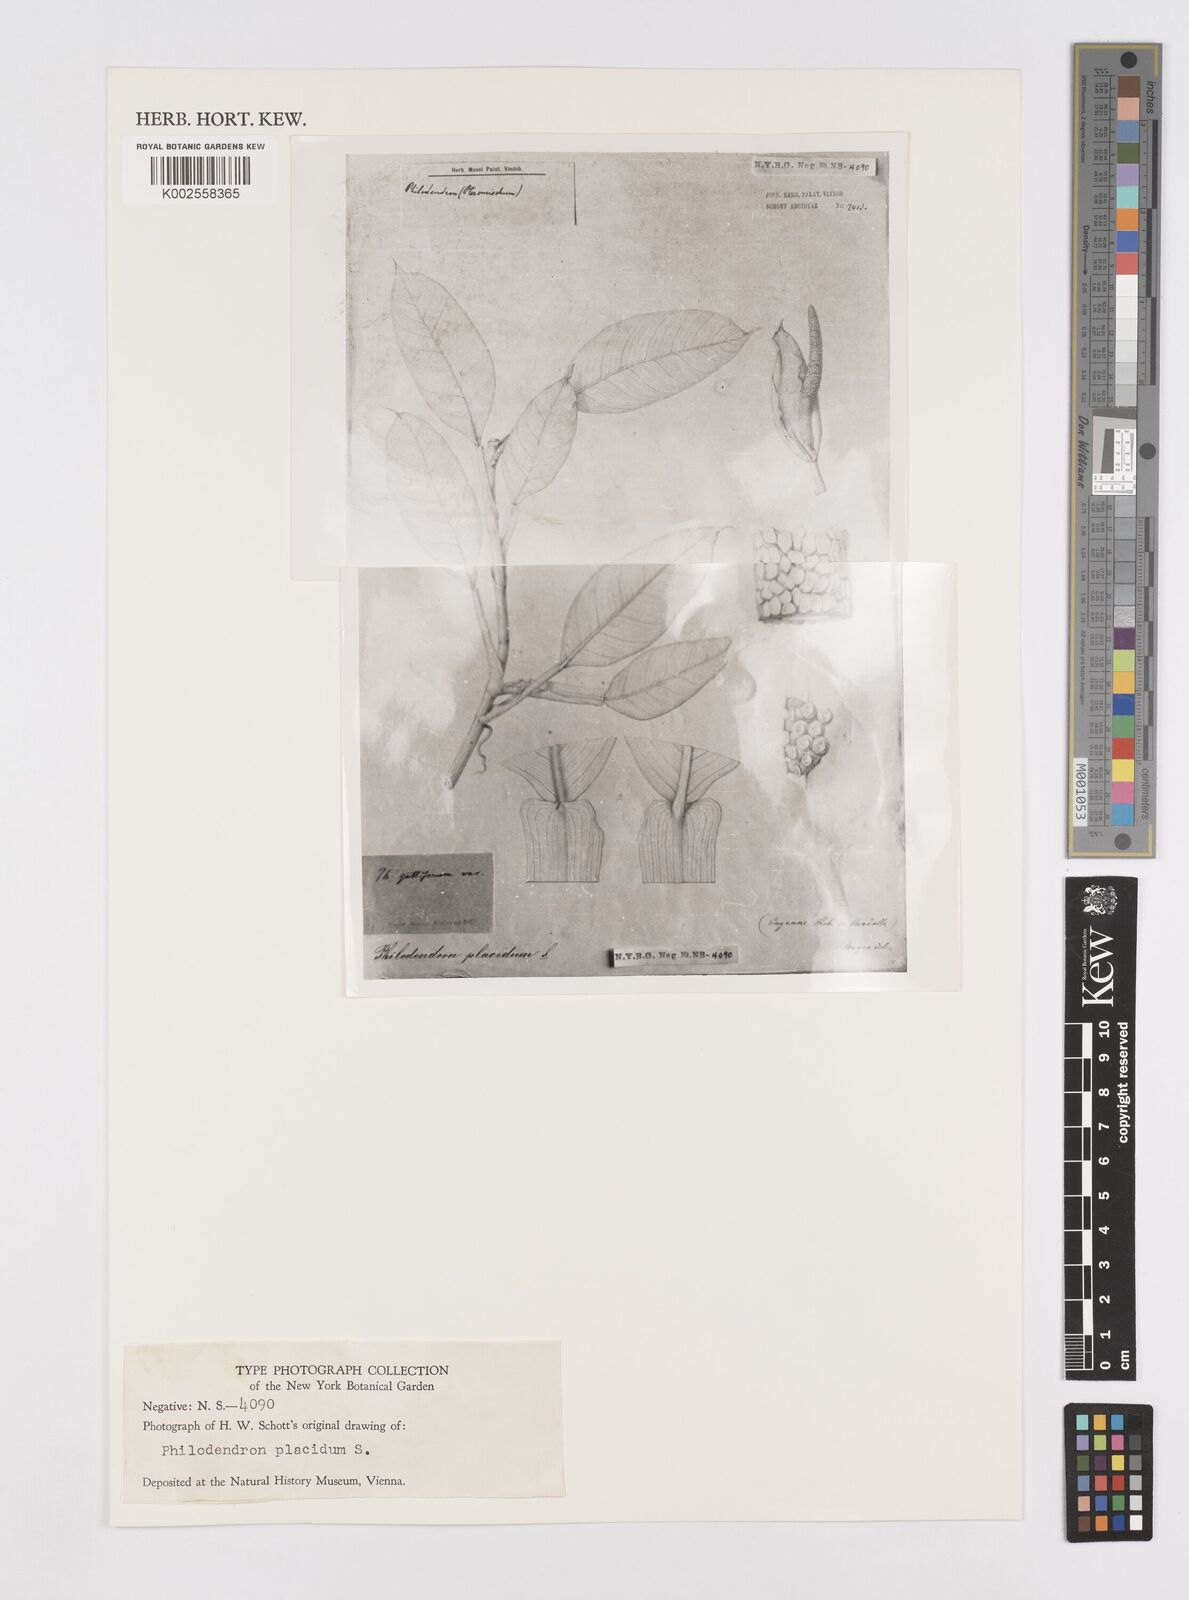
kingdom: Plantae
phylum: Tracheophyta
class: Liliopsida
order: Alismatales
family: Araceae
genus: Philodendron
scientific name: Philodendron placidum
